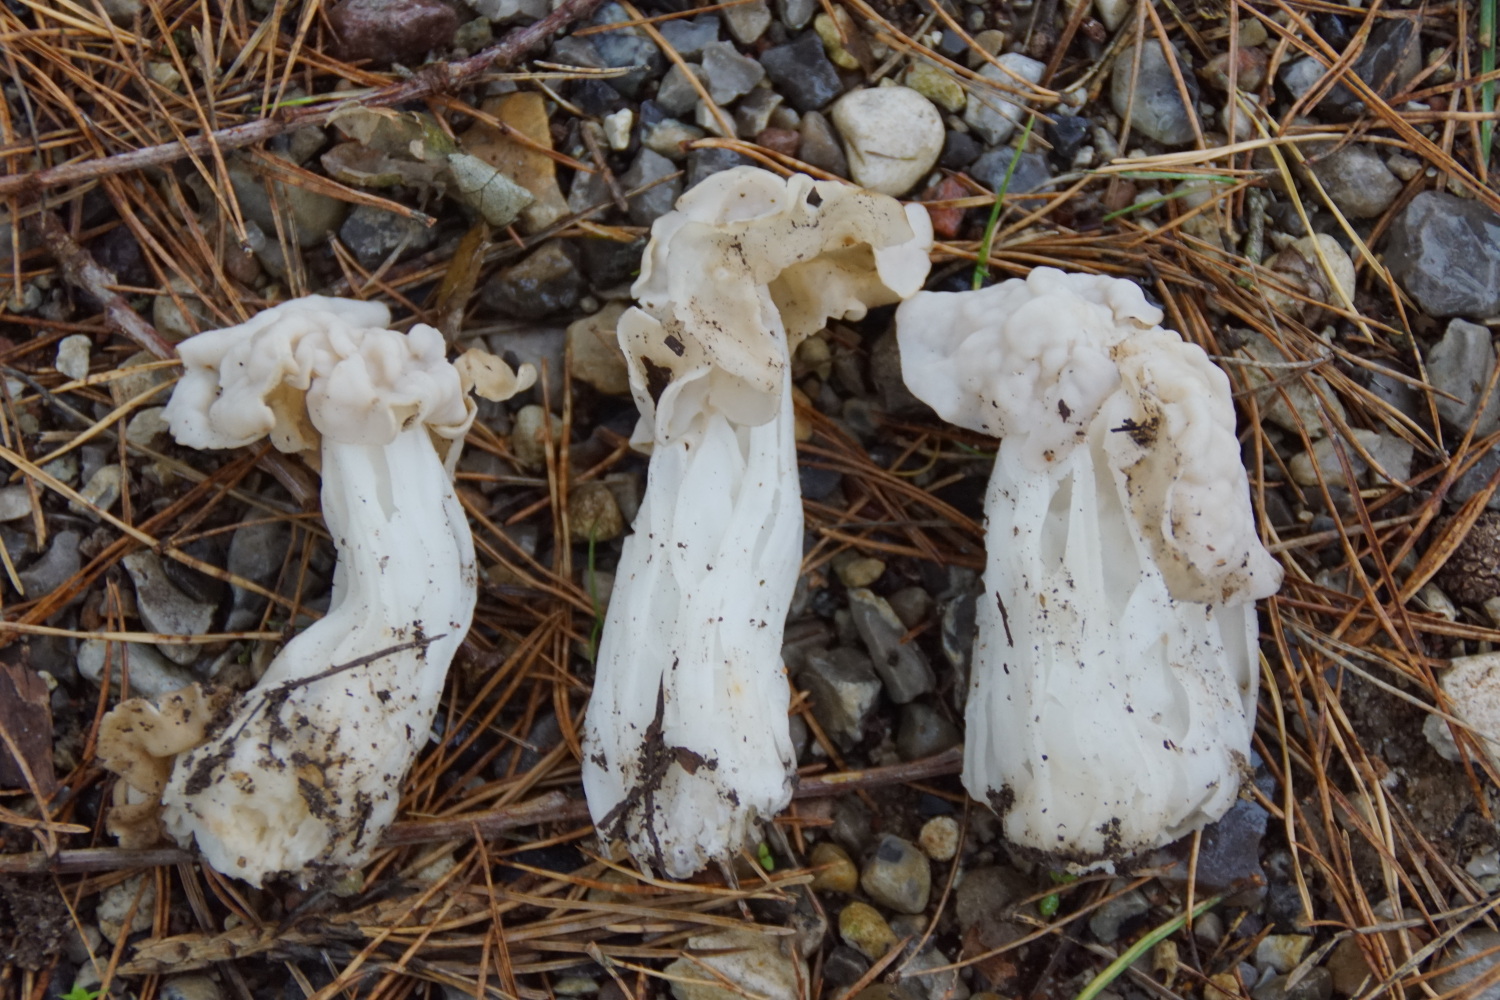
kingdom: Fungi
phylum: Ascomycota
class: Pezizomycetes
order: Pezizales
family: Helvellaceae
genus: Helvella
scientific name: Helvella crispa
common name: kruset foldhat
